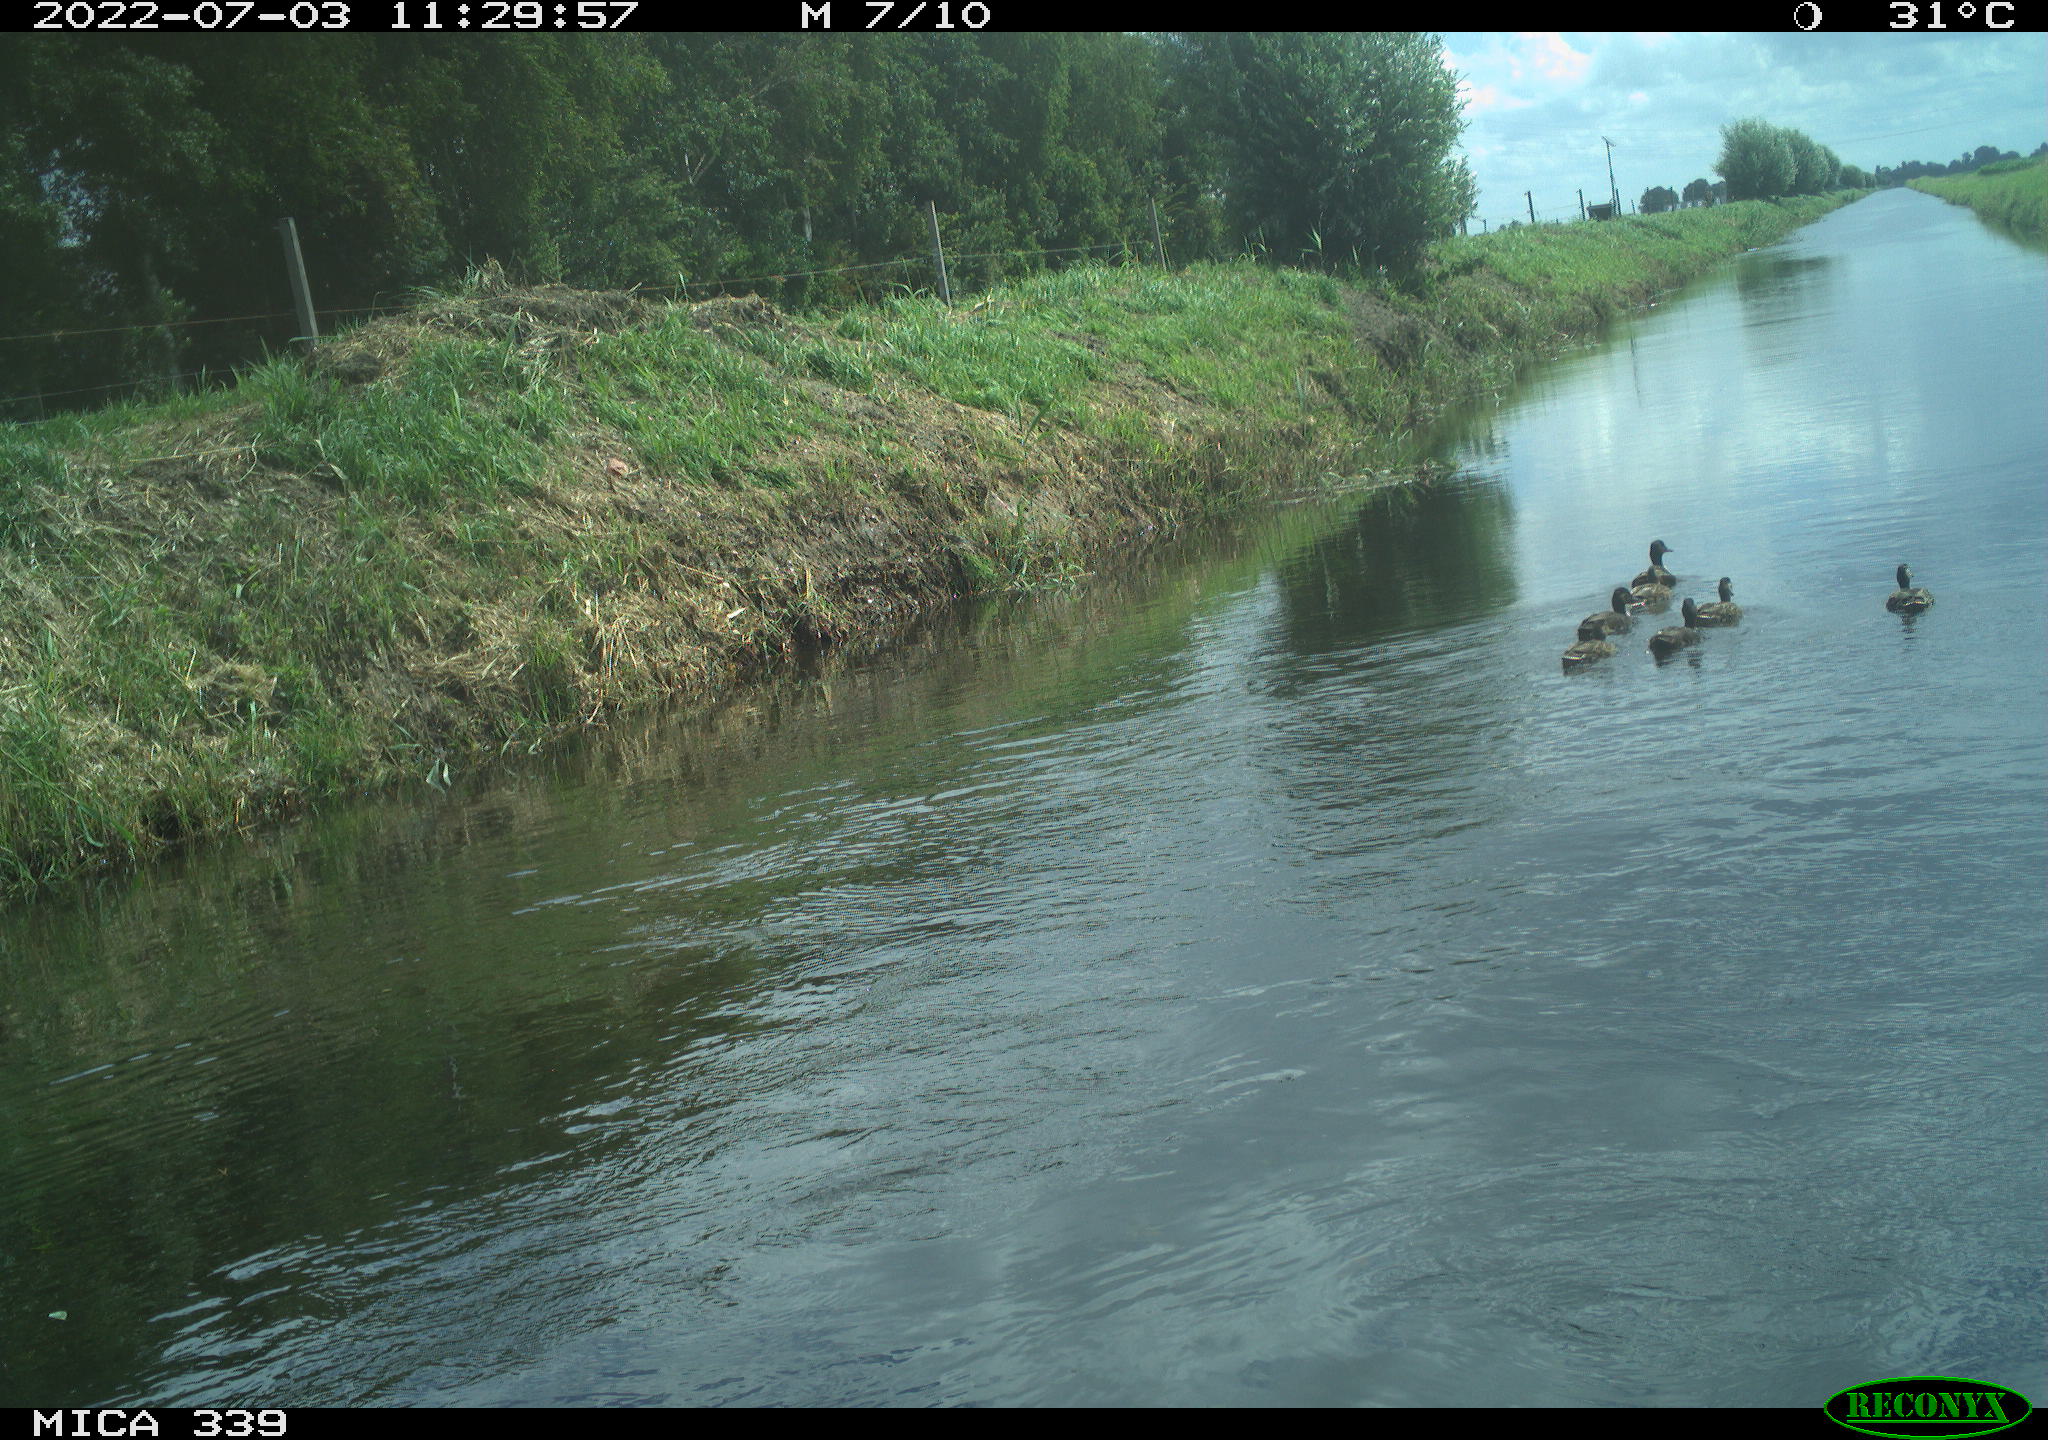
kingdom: Animalia
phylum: Chordata
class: Aves
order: Anseriformes
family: Anatidae
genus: Anas
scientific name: Anas platyrhynchos
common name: Mallard
